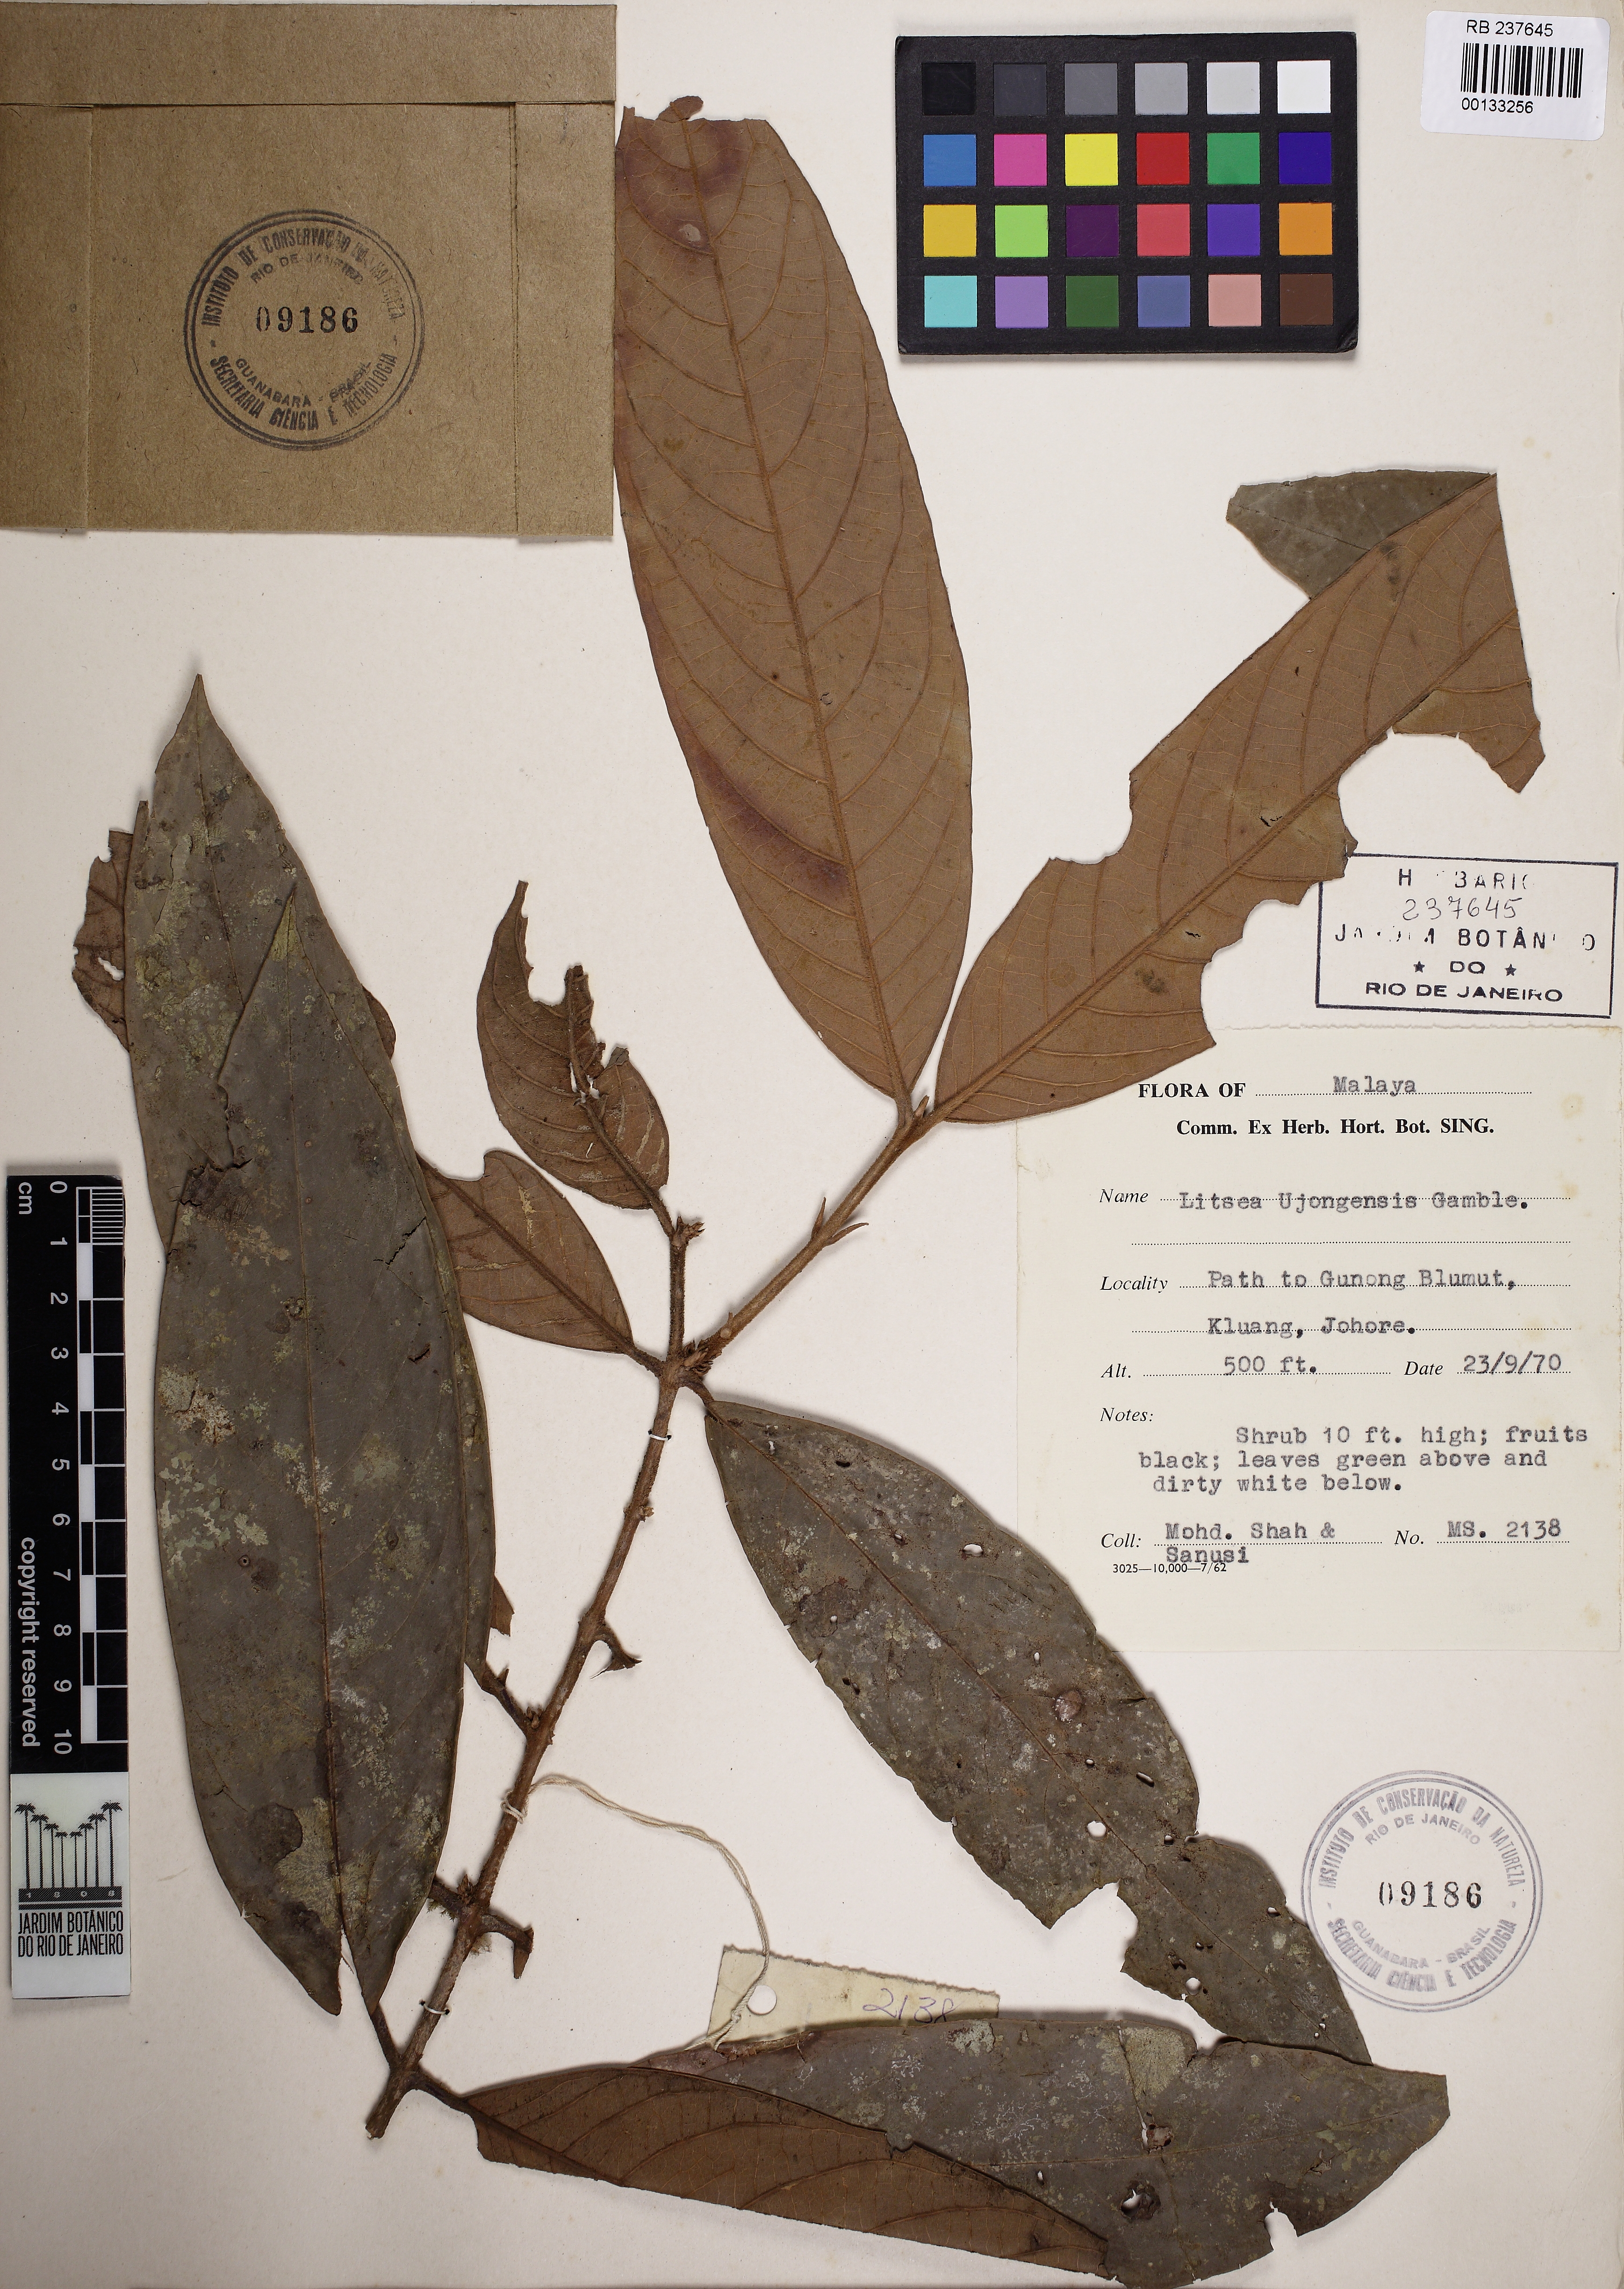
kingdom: Plantae
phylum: Tracheophyta
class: Magnoliopsida
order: Laurales
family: Lauraceae
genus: Litsea
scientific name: Litsea sessiliflora
